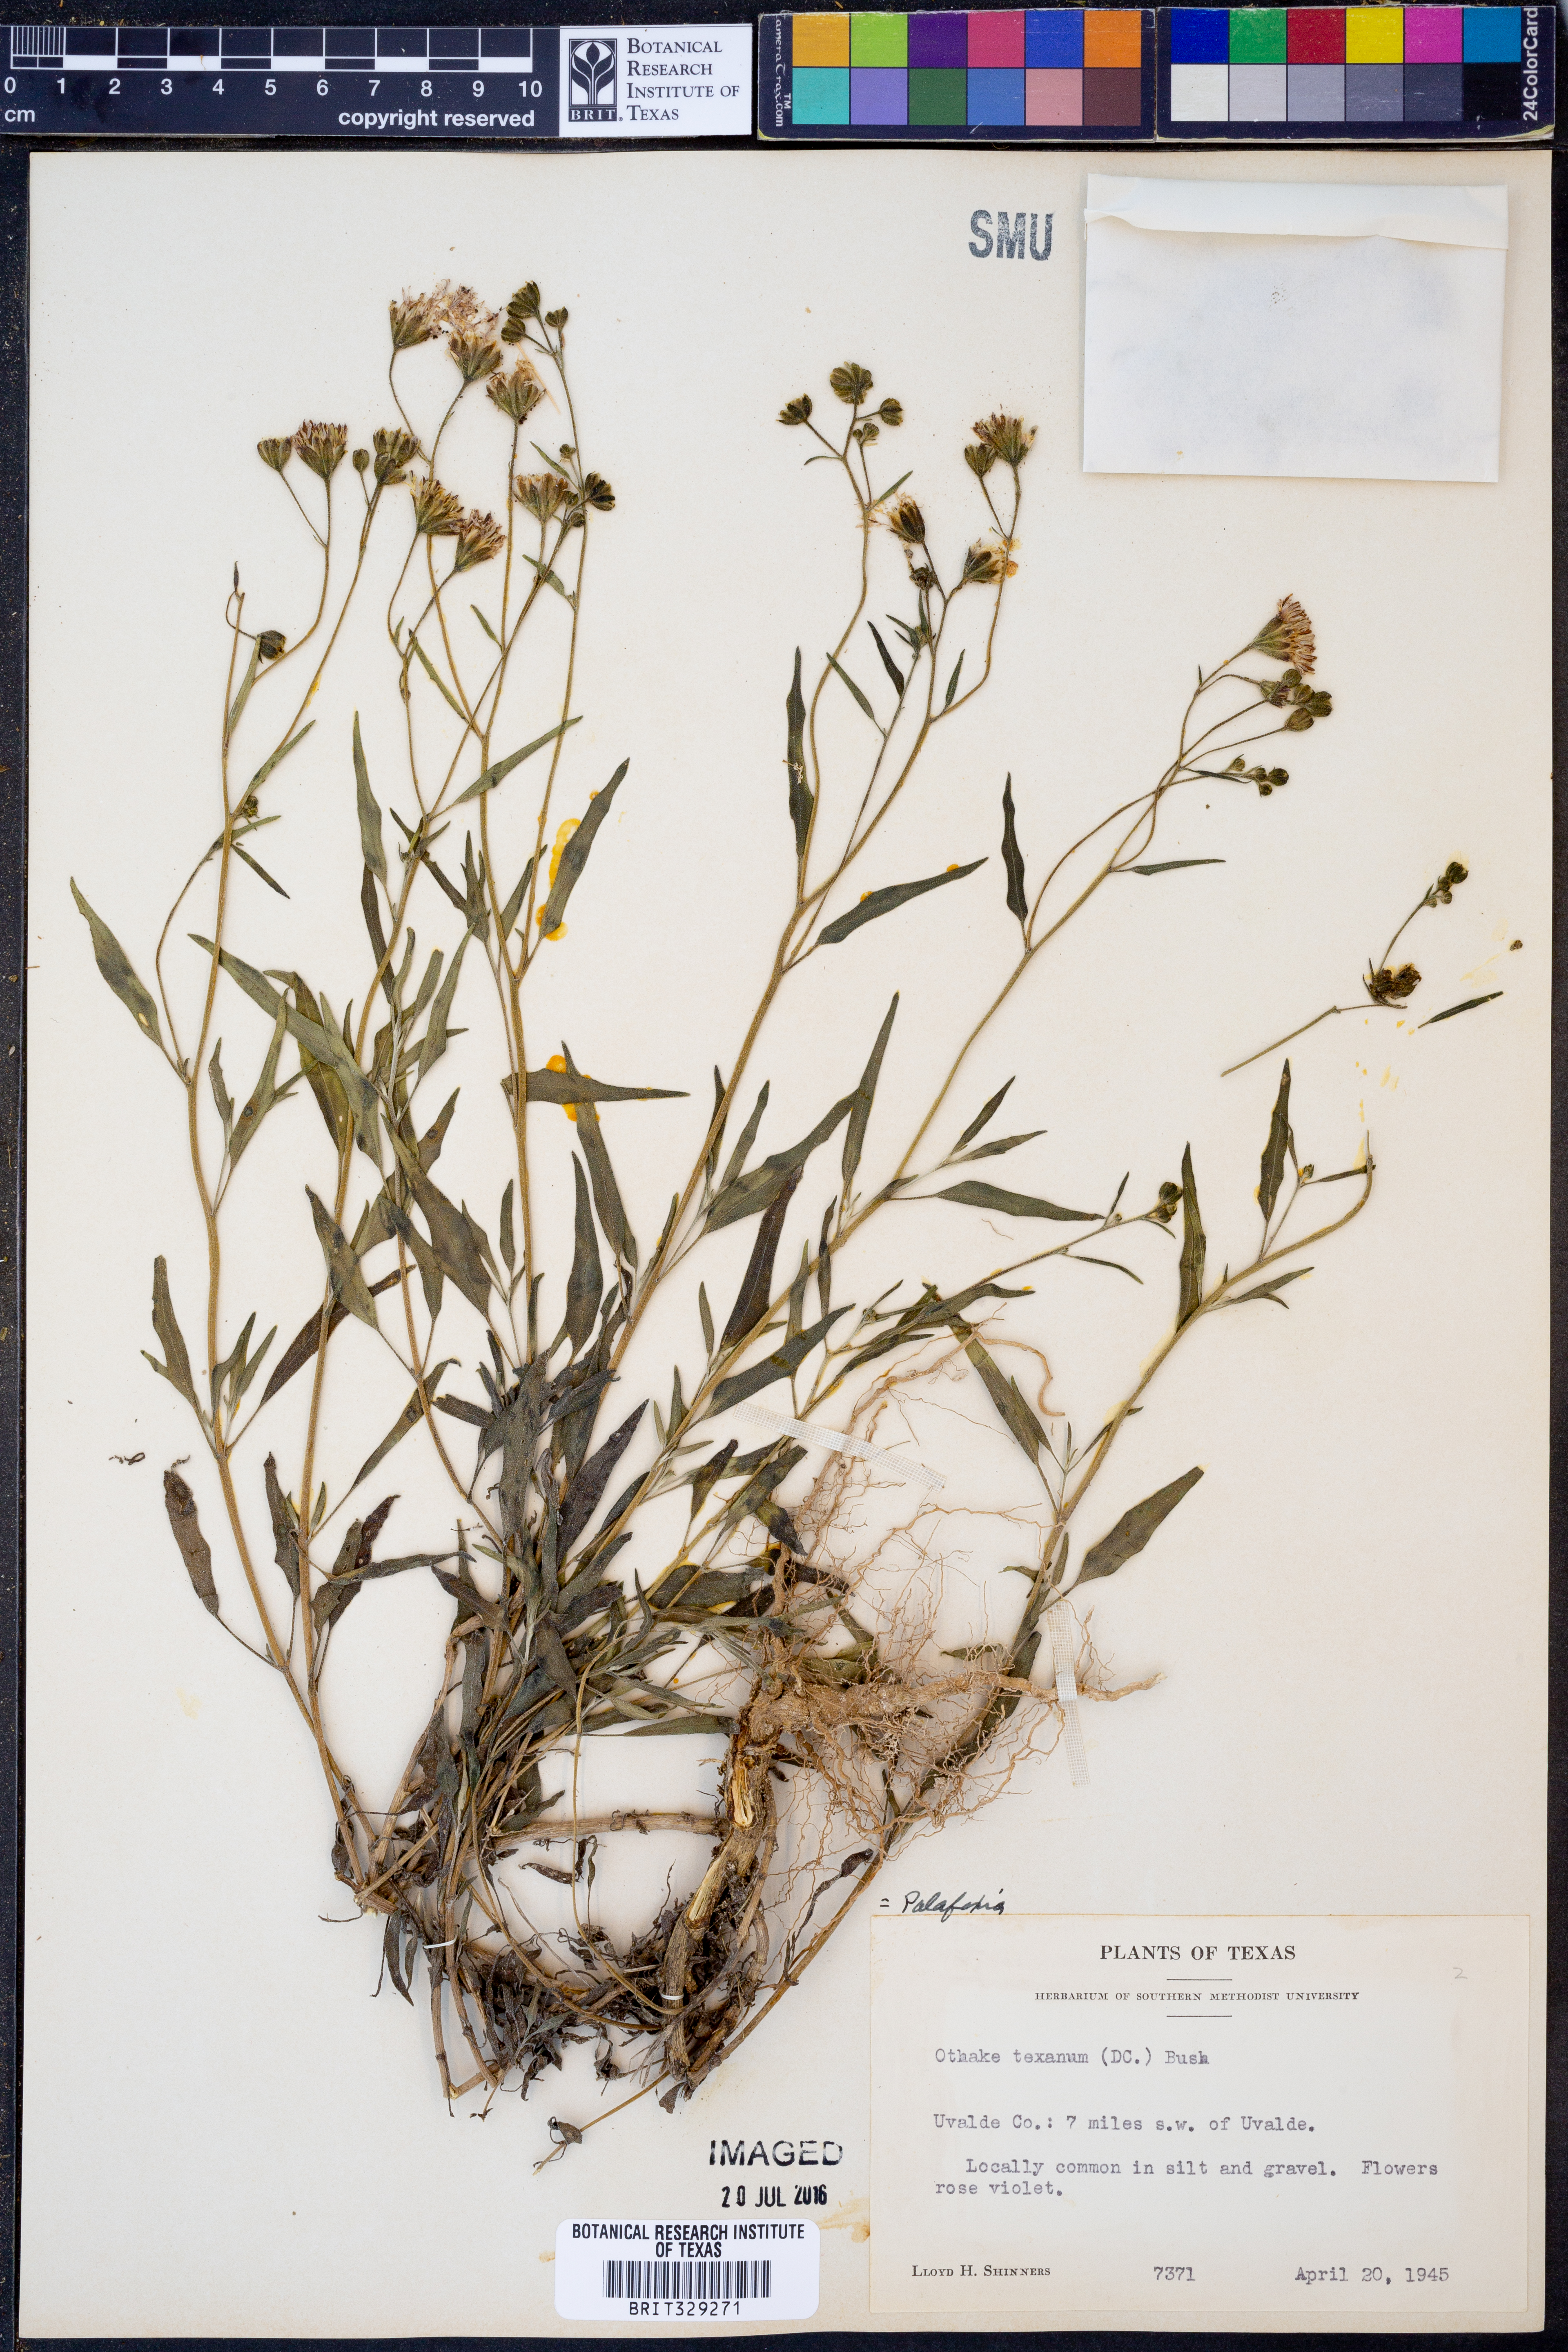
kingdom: Plantae
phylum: Tracheophyta
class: Magnoliopsida
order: Asterales
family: Asteraceae
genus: Palafoxia
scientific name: Palafoxia texana
